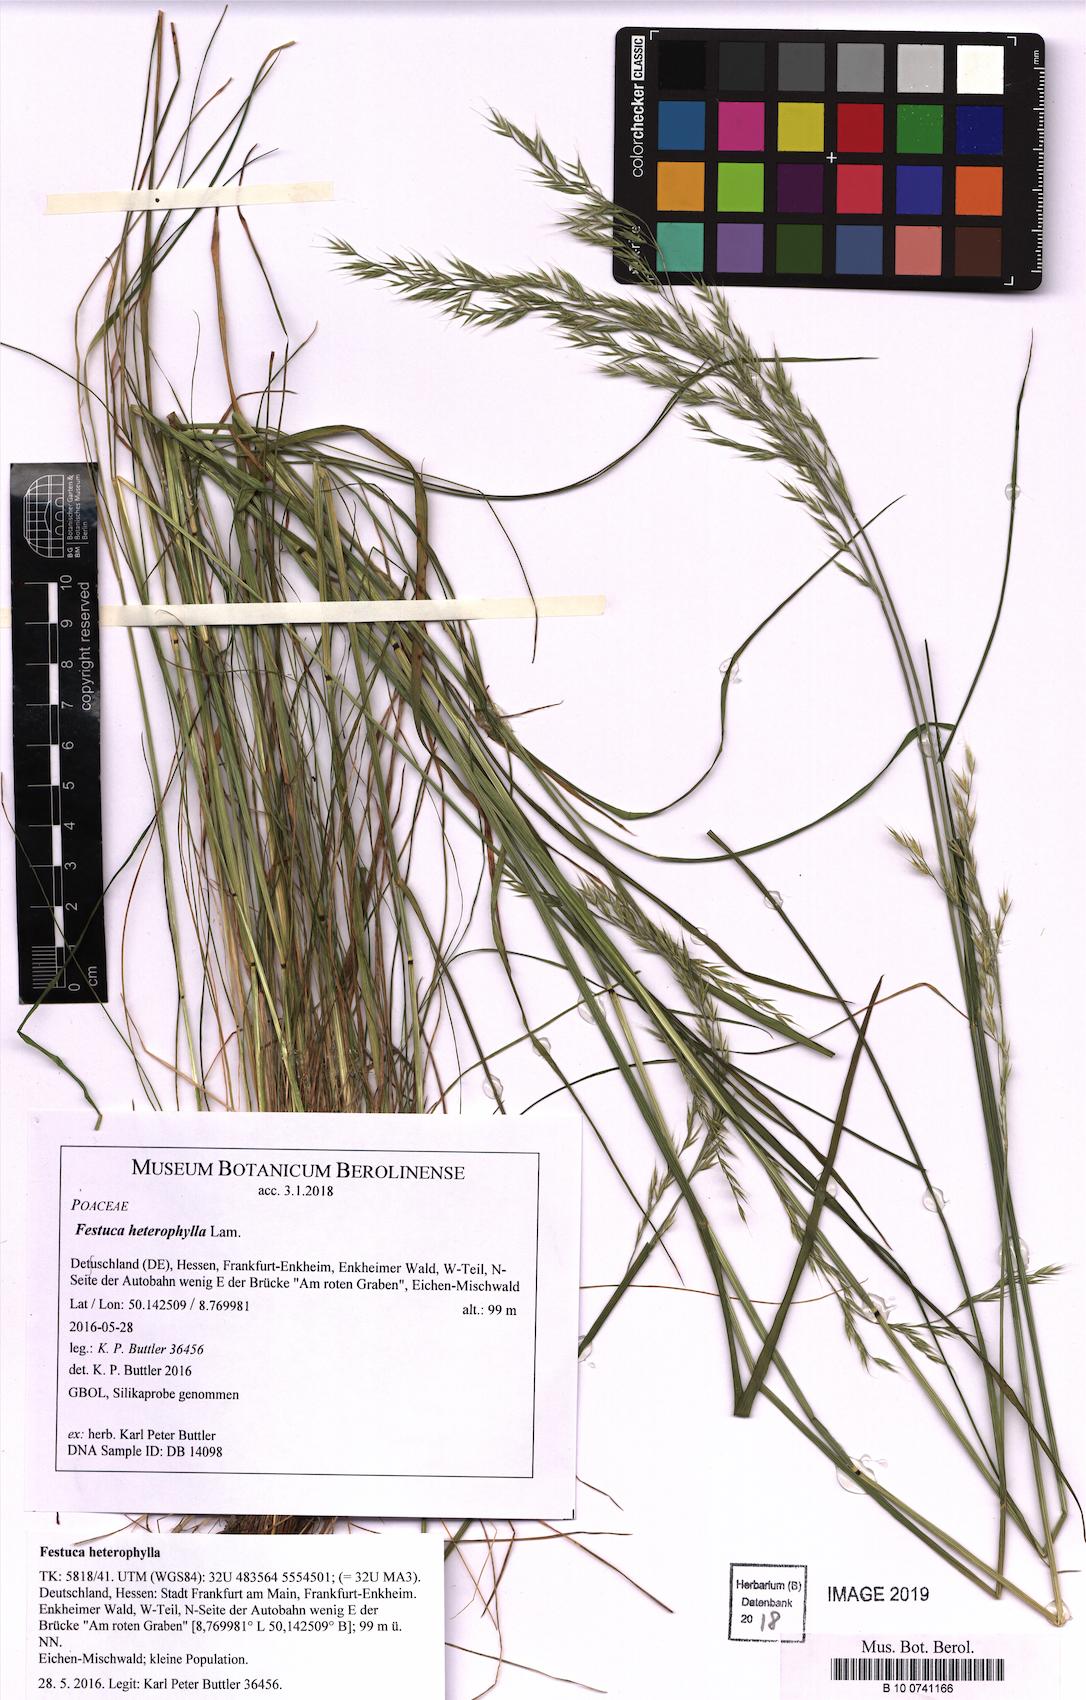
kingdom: Plantae
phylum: Tracheophyta
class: Liliopsida
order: Poales
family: Poaceae
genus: Festuca
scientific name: Festuca heterophylla
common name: Various-leaved fescue
